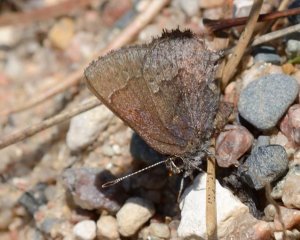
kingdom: Animalia
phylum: Arthropoda
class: Insecta
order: Lepidoptera
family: Lycaenidae
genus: Callophrys
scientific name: Callophrys polios
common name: Hoary Elfin
